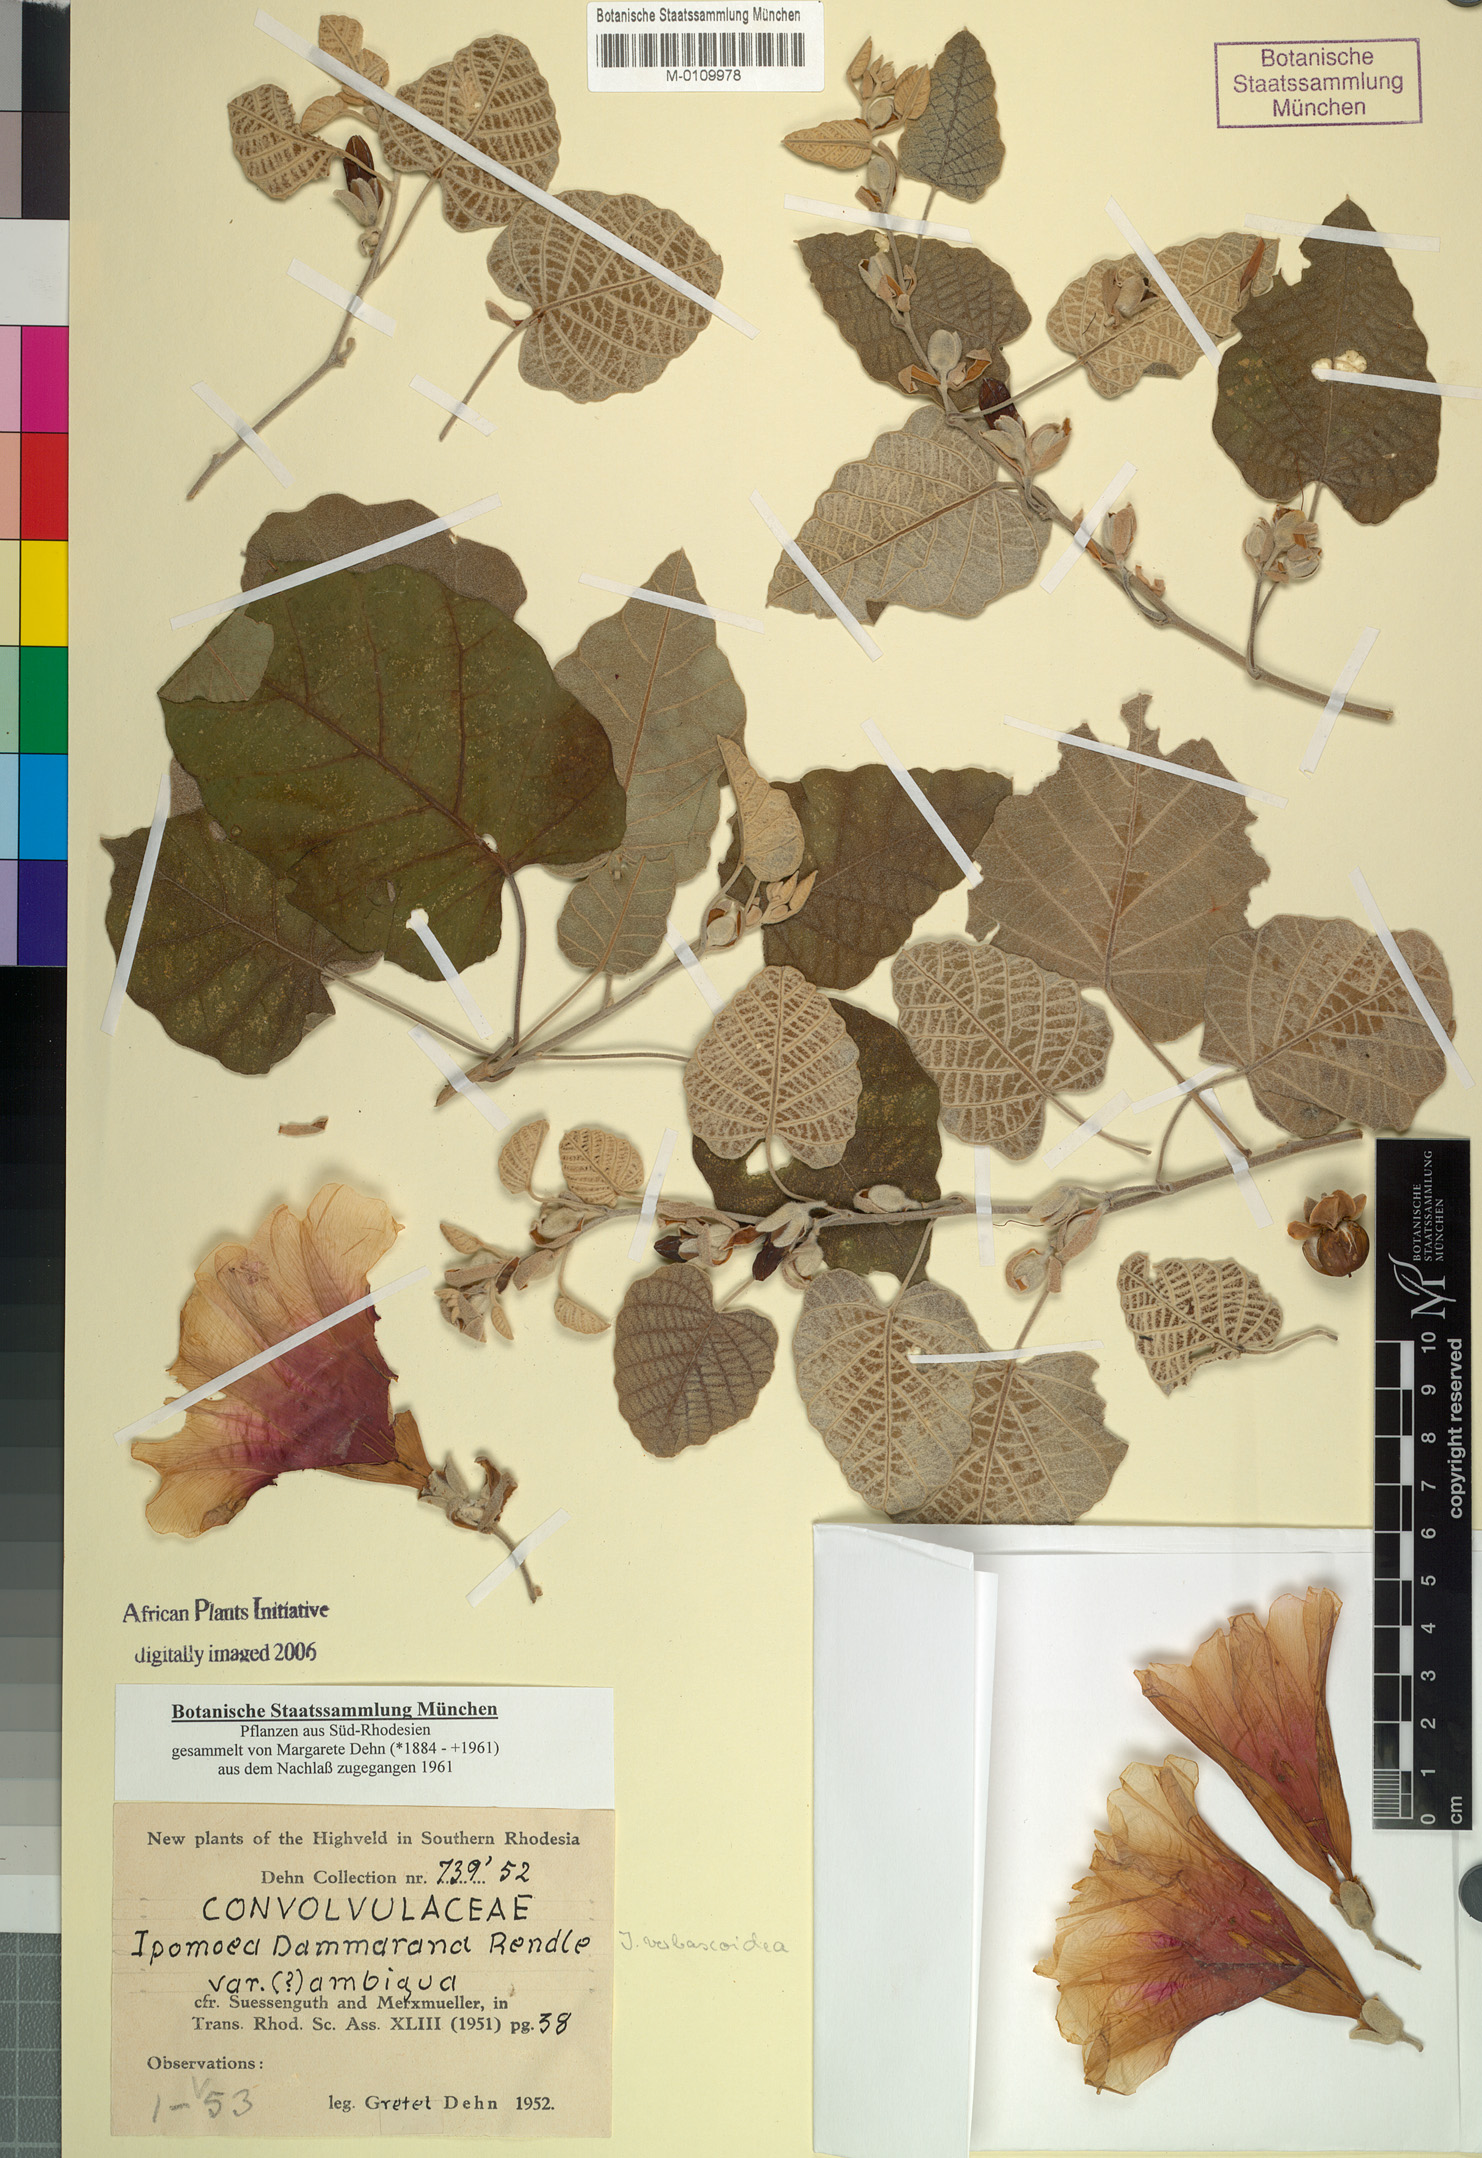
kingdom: Plantae
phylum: Tracheophyta
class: Magnoliopsida
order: Solanales
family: Convolvulaceae
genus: Ipomoea
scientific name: Ipomoea verbascoidea
